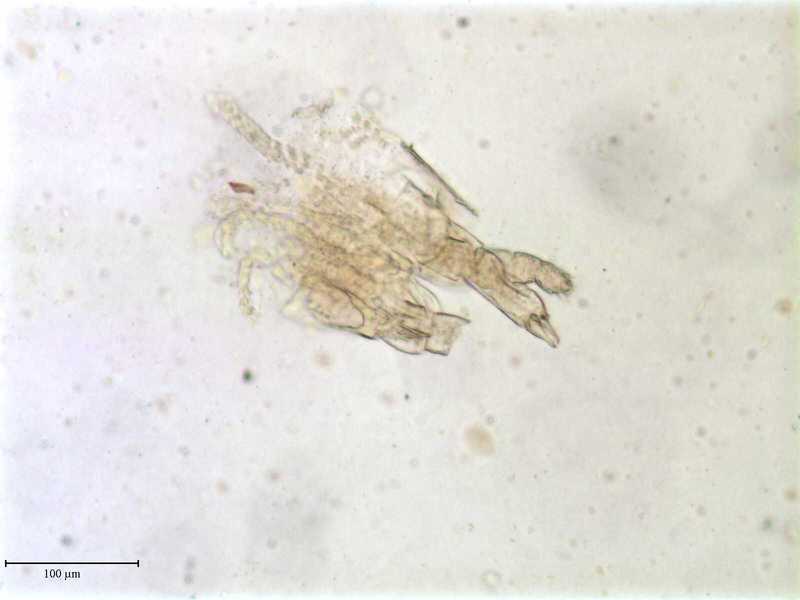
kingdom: Animalia
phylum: Arthropoda
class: Arachnida
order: Mesostigmata
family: Entonyssidae
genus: Entophionyssus
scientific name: Entophionyssus glasmacheri
